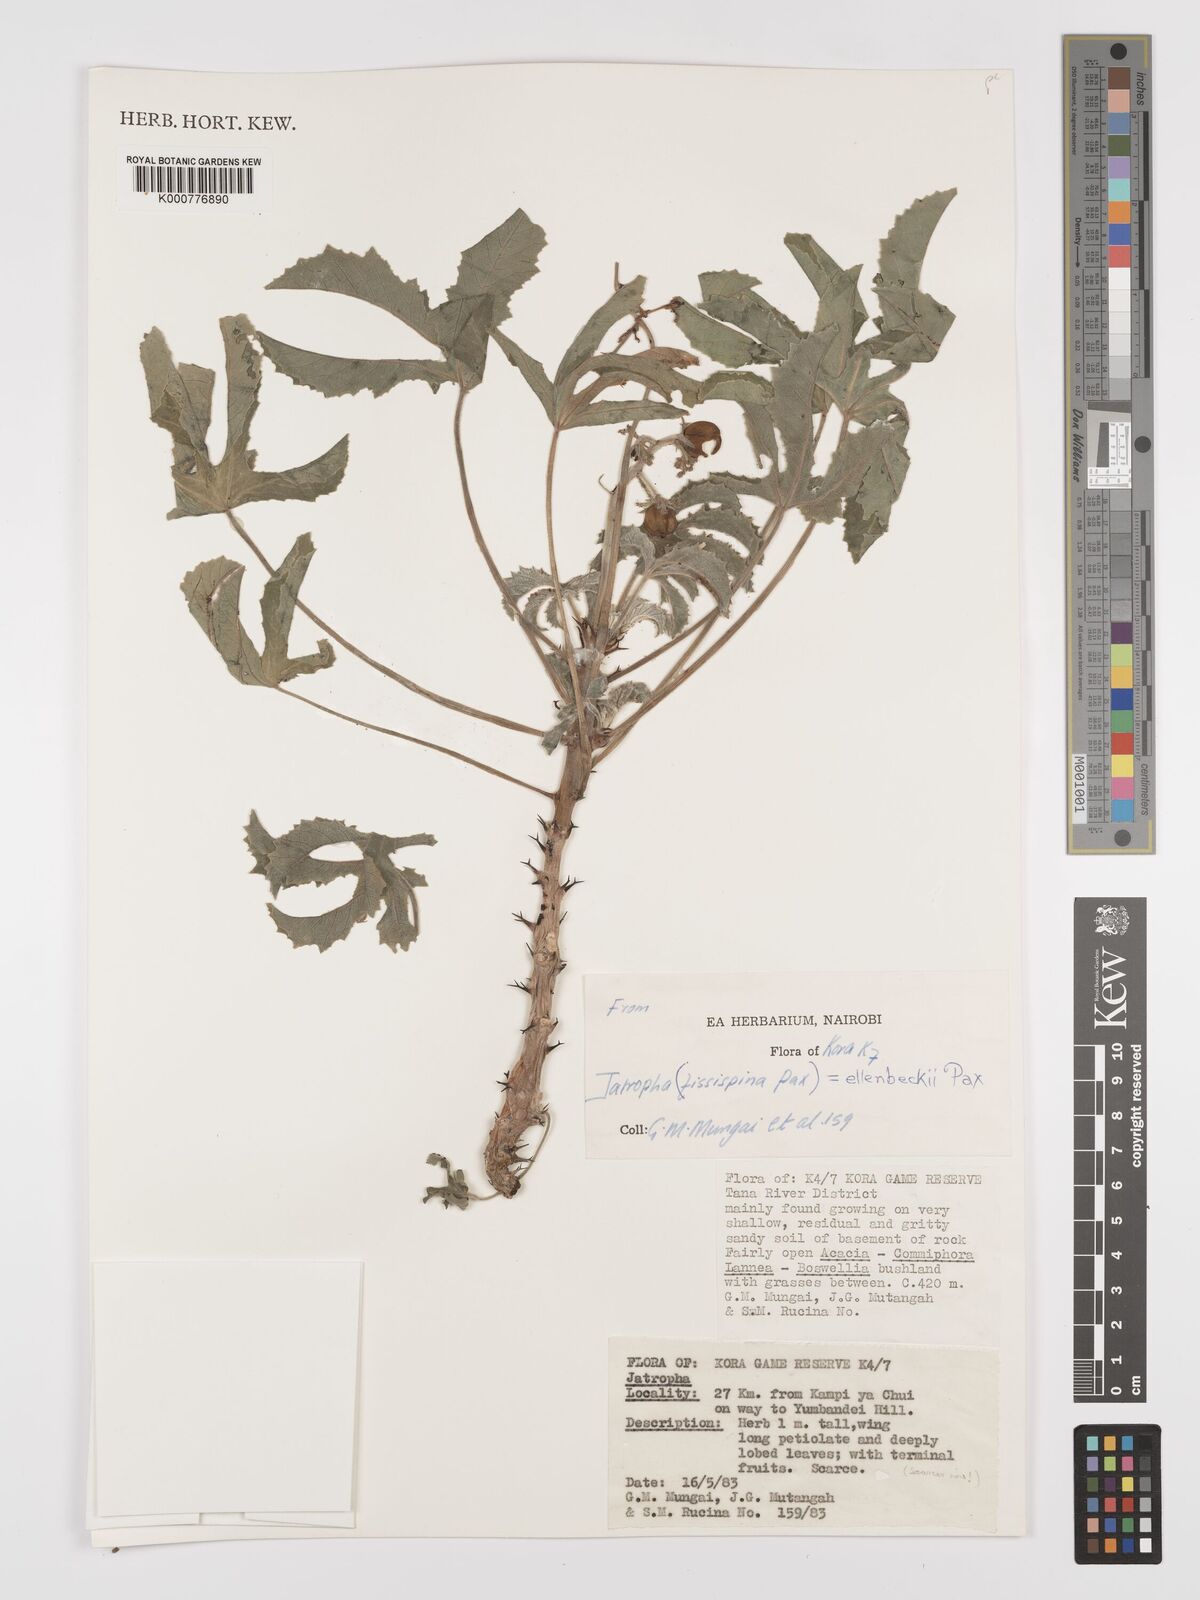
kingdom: Plantae
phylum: Tracheophyta
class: Magnoliopsida
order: Malpighiales
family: Euphorbiaceae
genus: Jatropha
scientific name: Jatropha ellenbeckii
